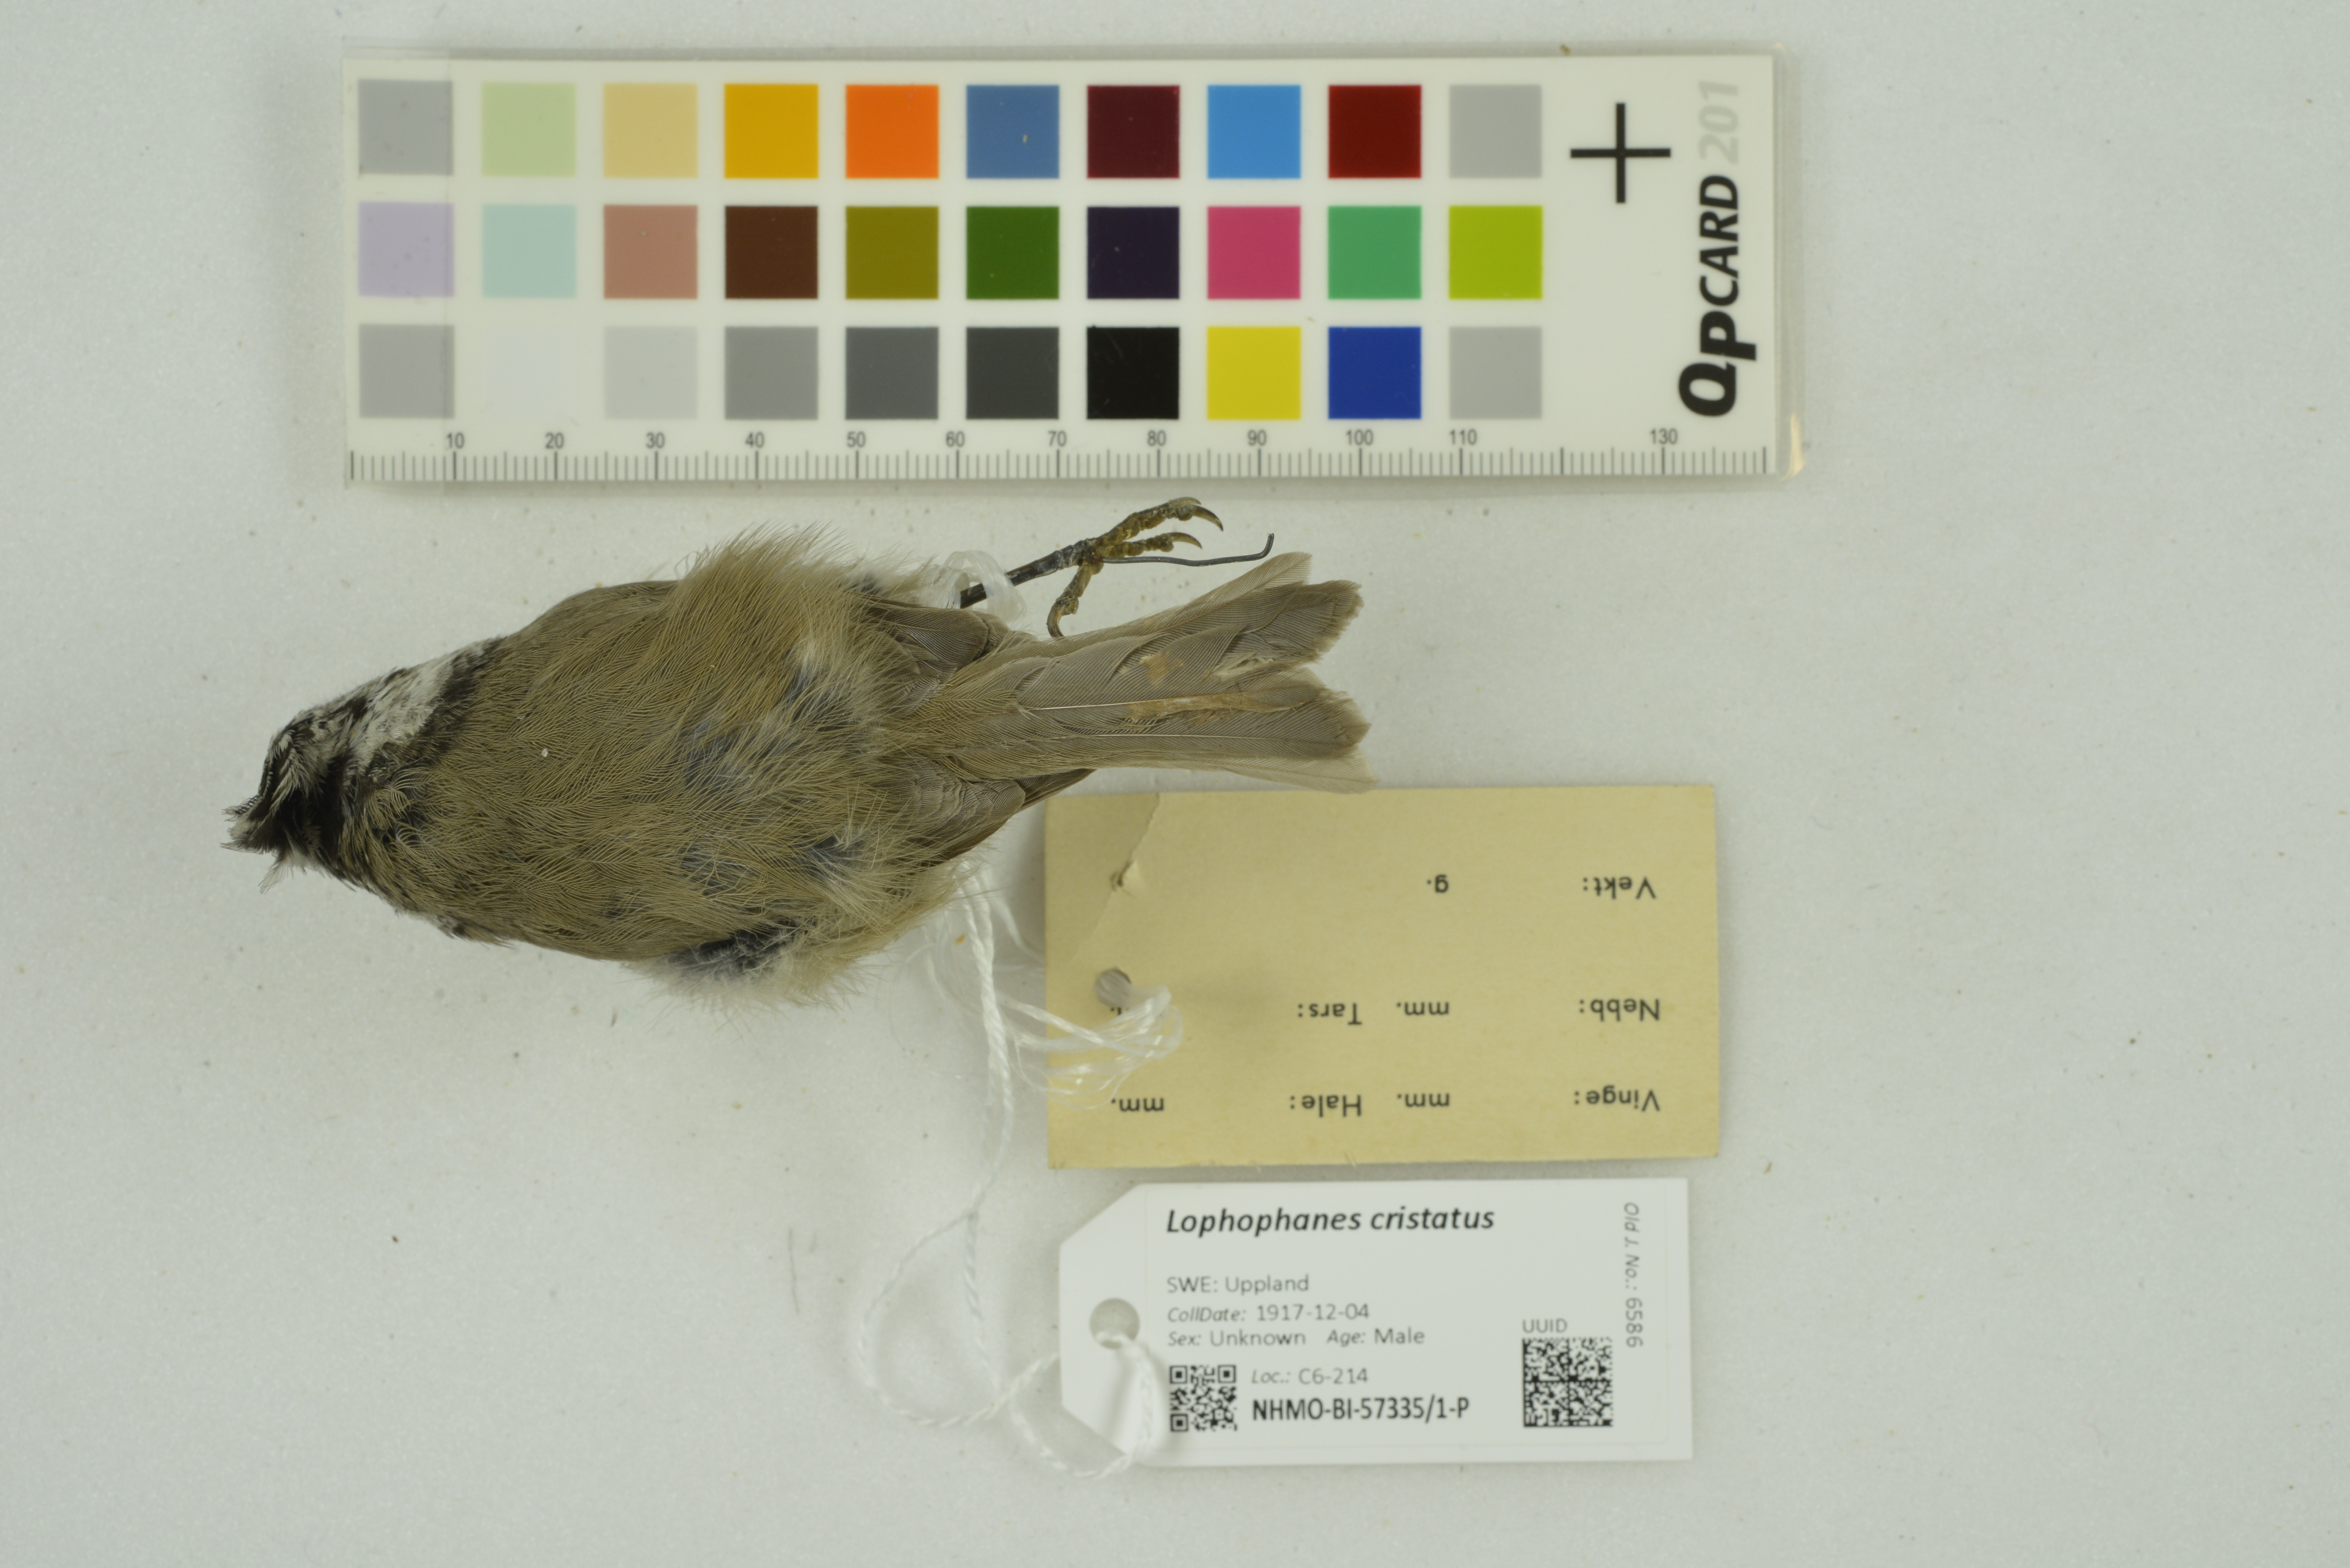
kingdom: Animalia
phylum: Chordata
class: Aves
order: Passeriformes
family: Paridae
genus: Lophophanes
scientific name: Lophophanes cristatus
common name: European crested tit
